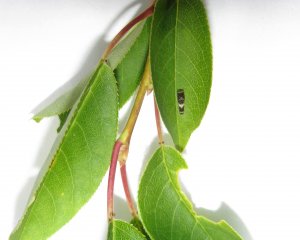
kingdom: Animalia
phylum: Arthropoda
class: Insecta
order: Lepidoptera
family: Papilionidae
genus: Pterourus
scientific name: Pterourus canadensis
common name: Canadian Tiger Swallowtail
